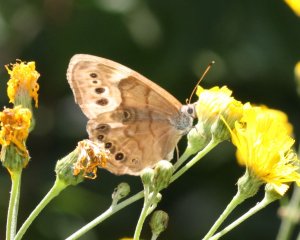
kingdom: Animalia
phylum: Arthropoda
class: Insecta
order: Lepidoptera
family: Nymphalidae
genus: Lethe
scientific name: Lethe anthedon
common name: Northern Pearly-Eye
